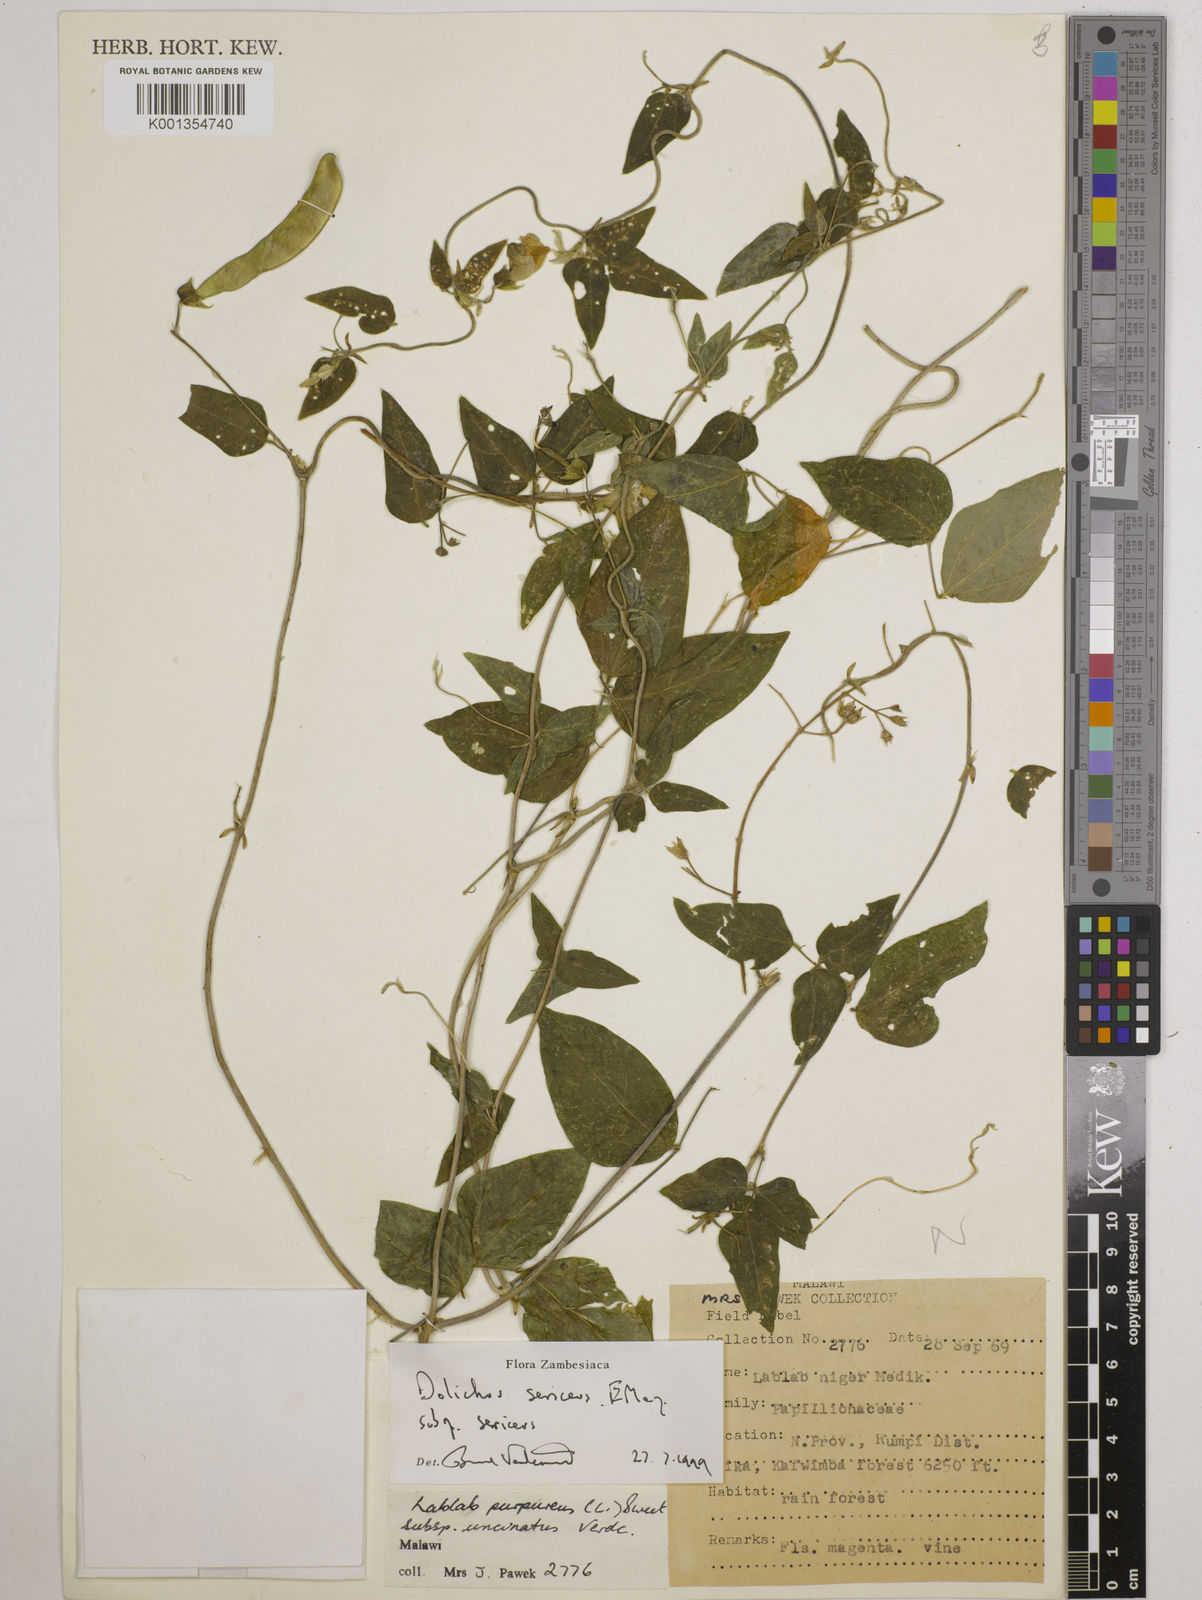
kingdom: Plantae
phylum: Tracheophyta
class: Magnoliopsida
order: Fabales
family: Fabaceae
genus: Dolichos
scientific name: Dolichos
